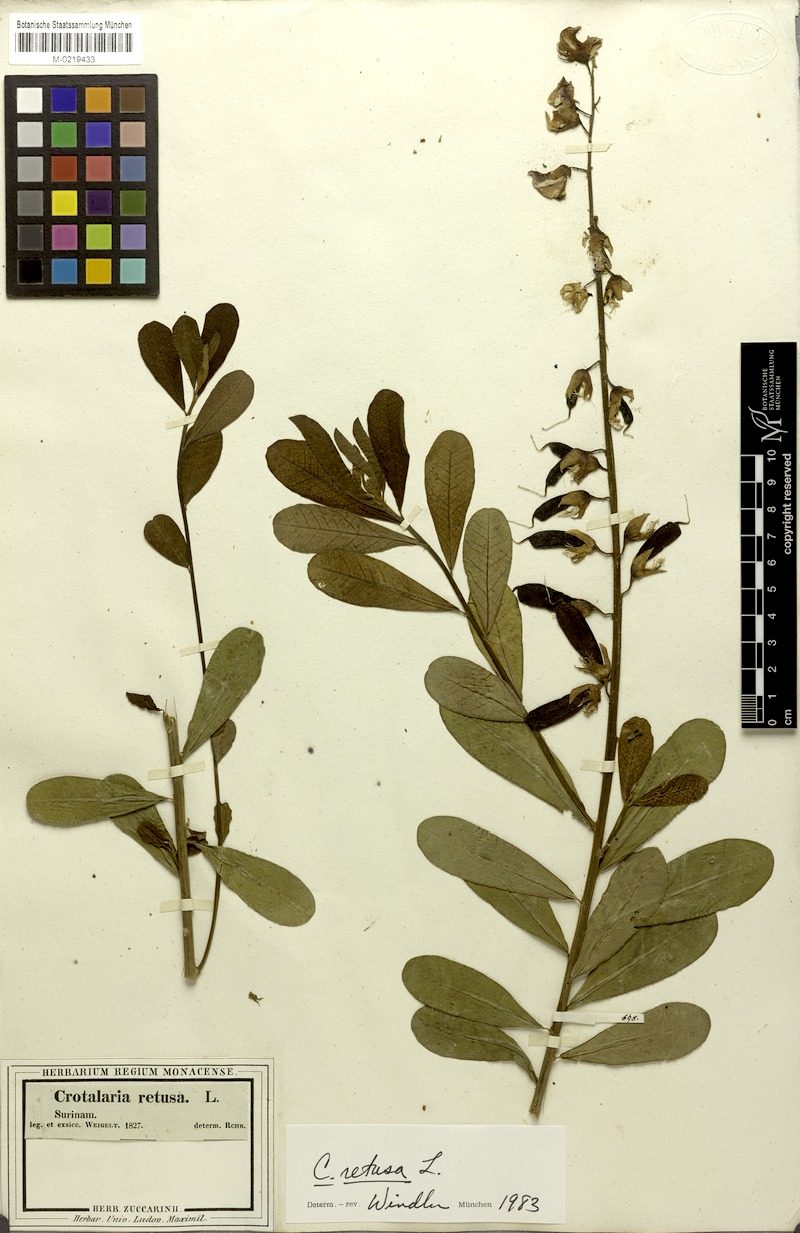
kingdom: Plantae
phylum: Tracheophyta
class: Magnoliopsida
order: Fabales
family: Fabaceae
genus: Crotalaria
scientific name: Crotalaria retusa
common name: Rattleweed
